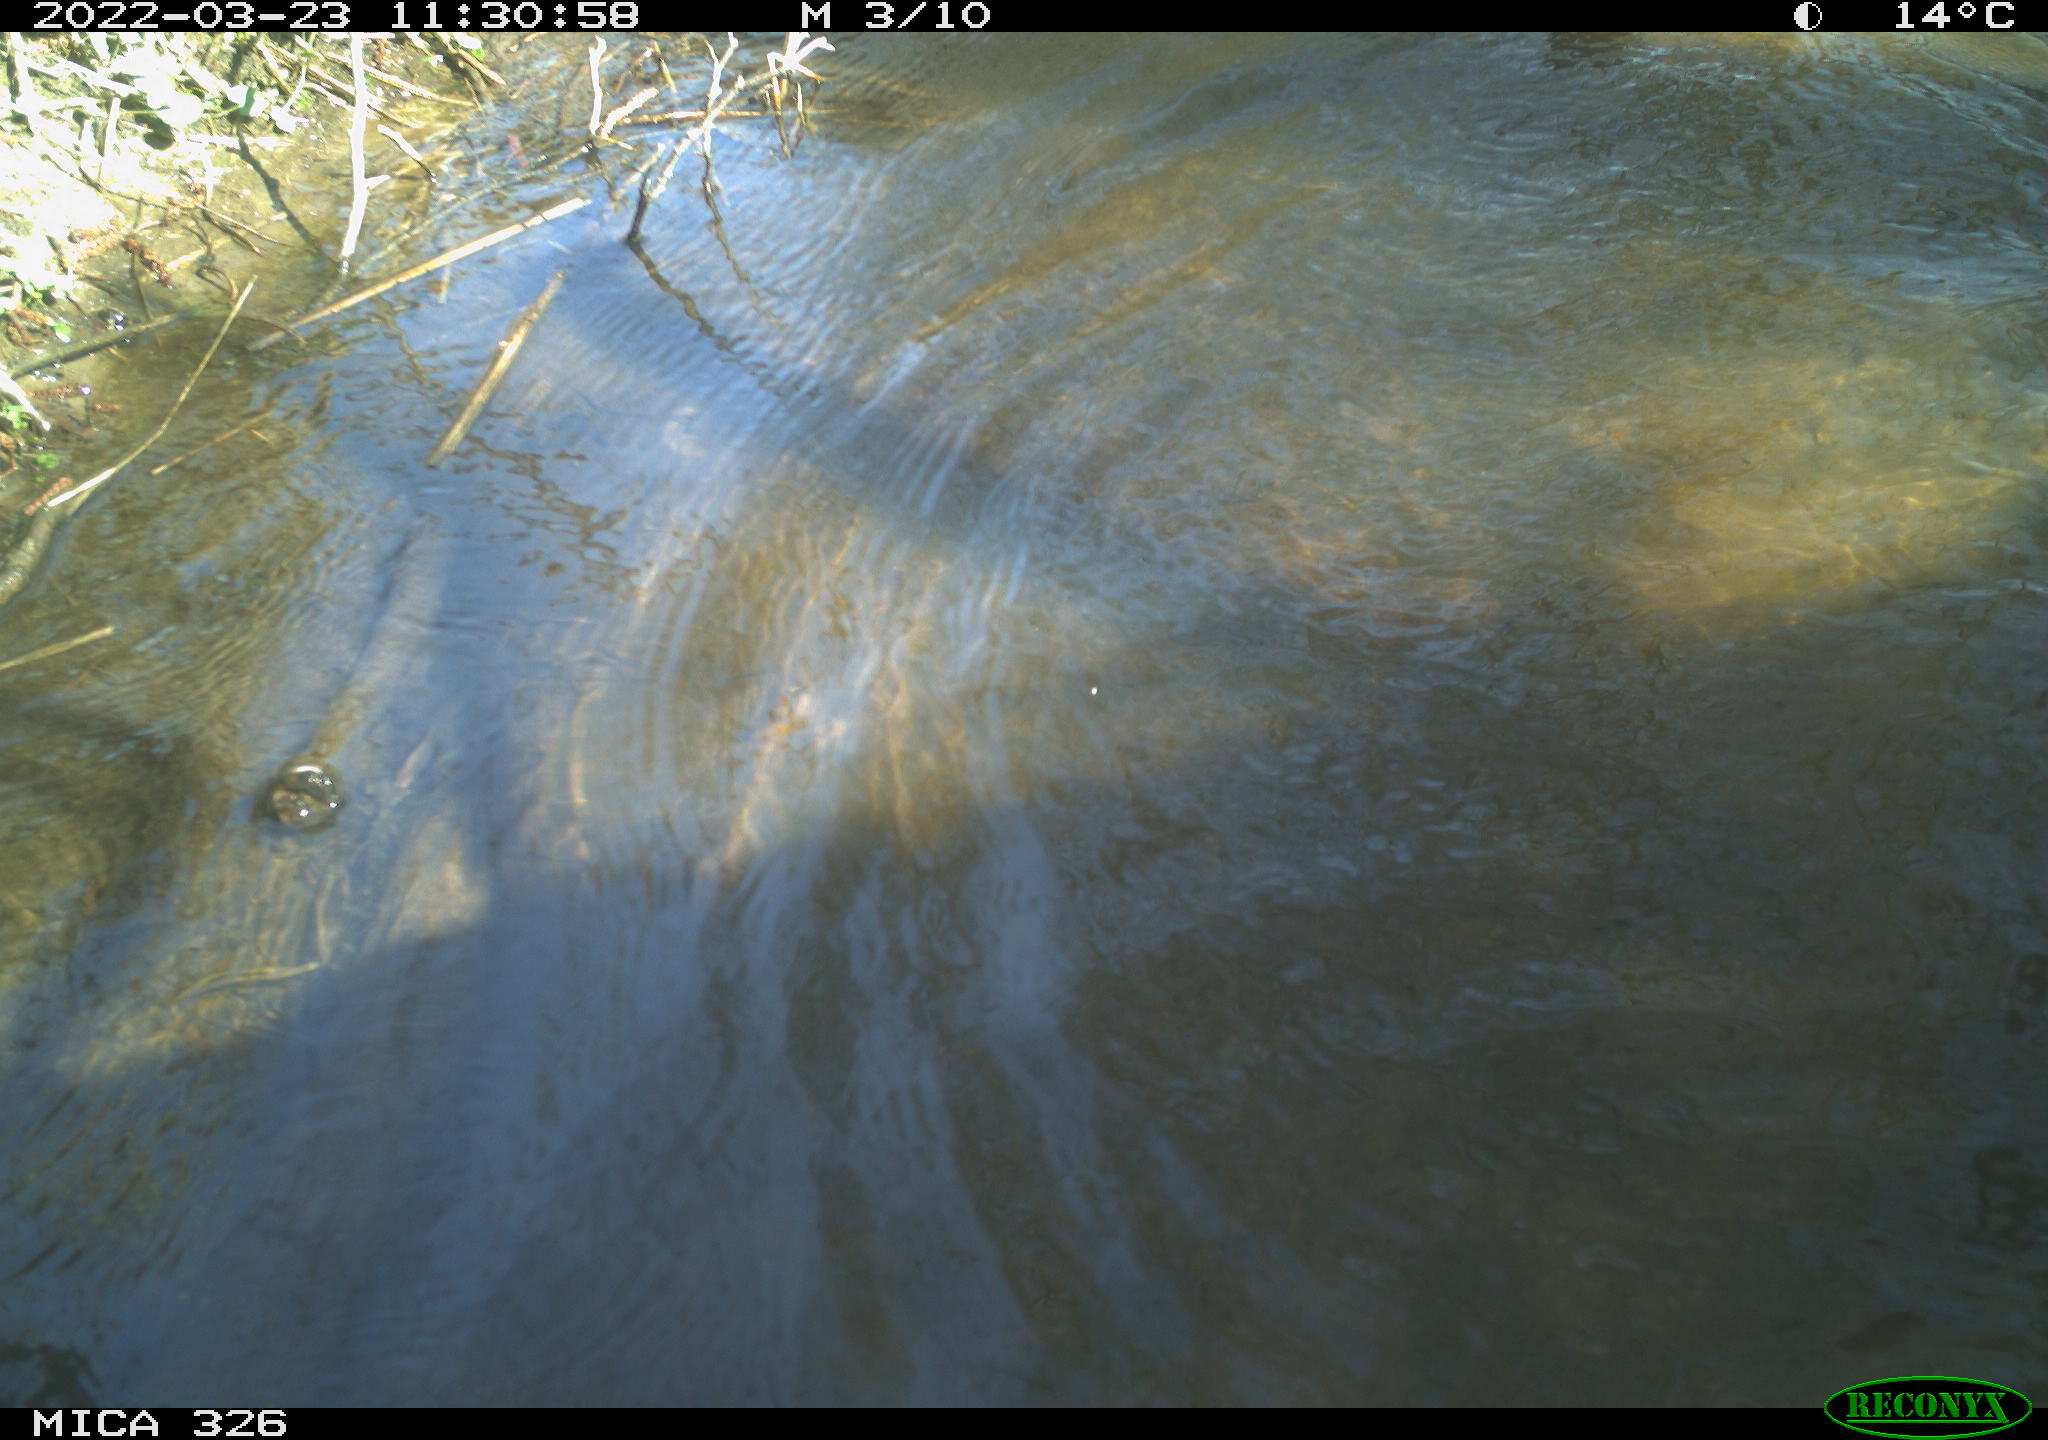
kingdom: Animalia
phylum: Chordata
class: Aves
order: Anseriformes
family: Anatidae
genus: Anas
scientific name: Anas platyrhynchos
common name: Mallard
